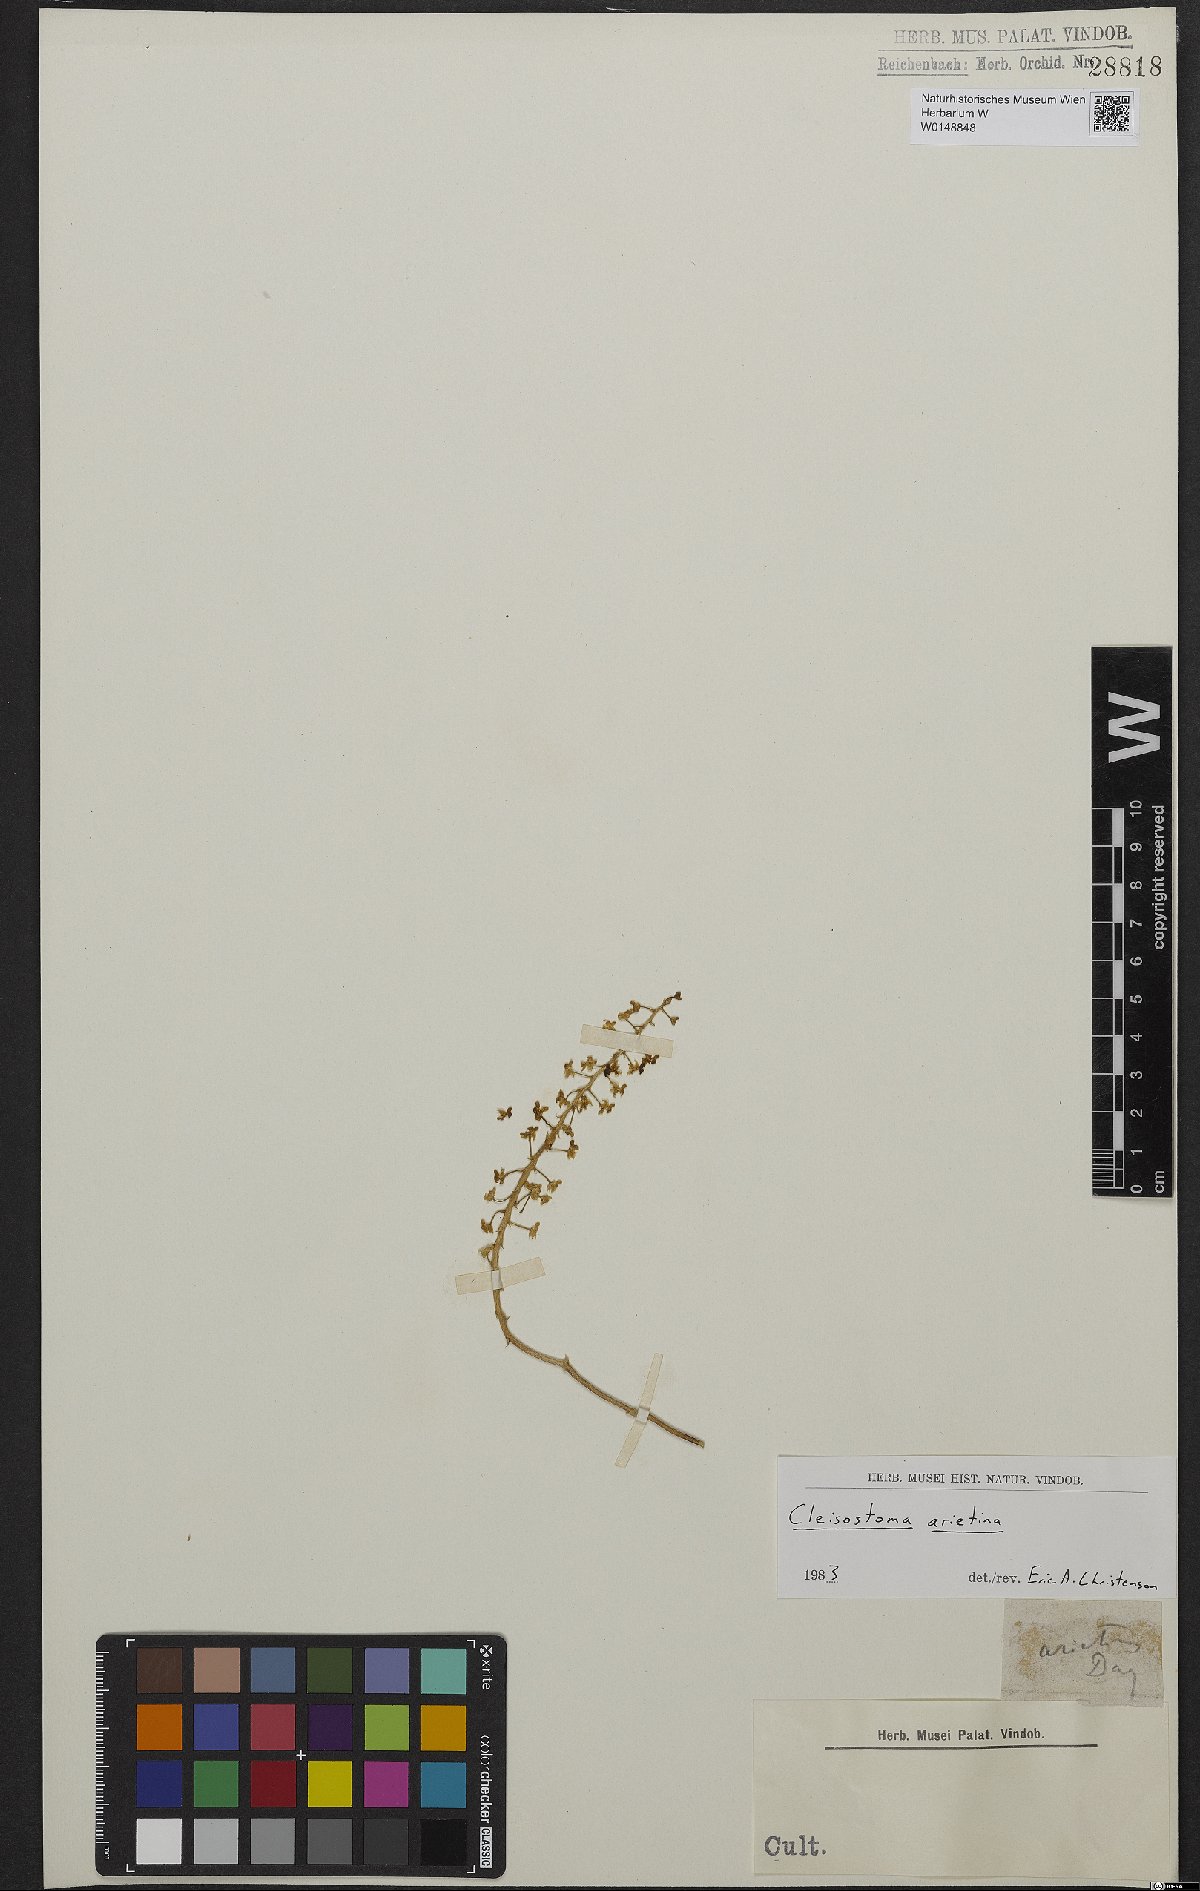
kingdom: Plantae
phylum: Tracheophyta
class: Liliopsida
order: Asparagales
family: Orchidaceae
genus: Cleisostoma
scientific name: Cleisostoma arietinum
